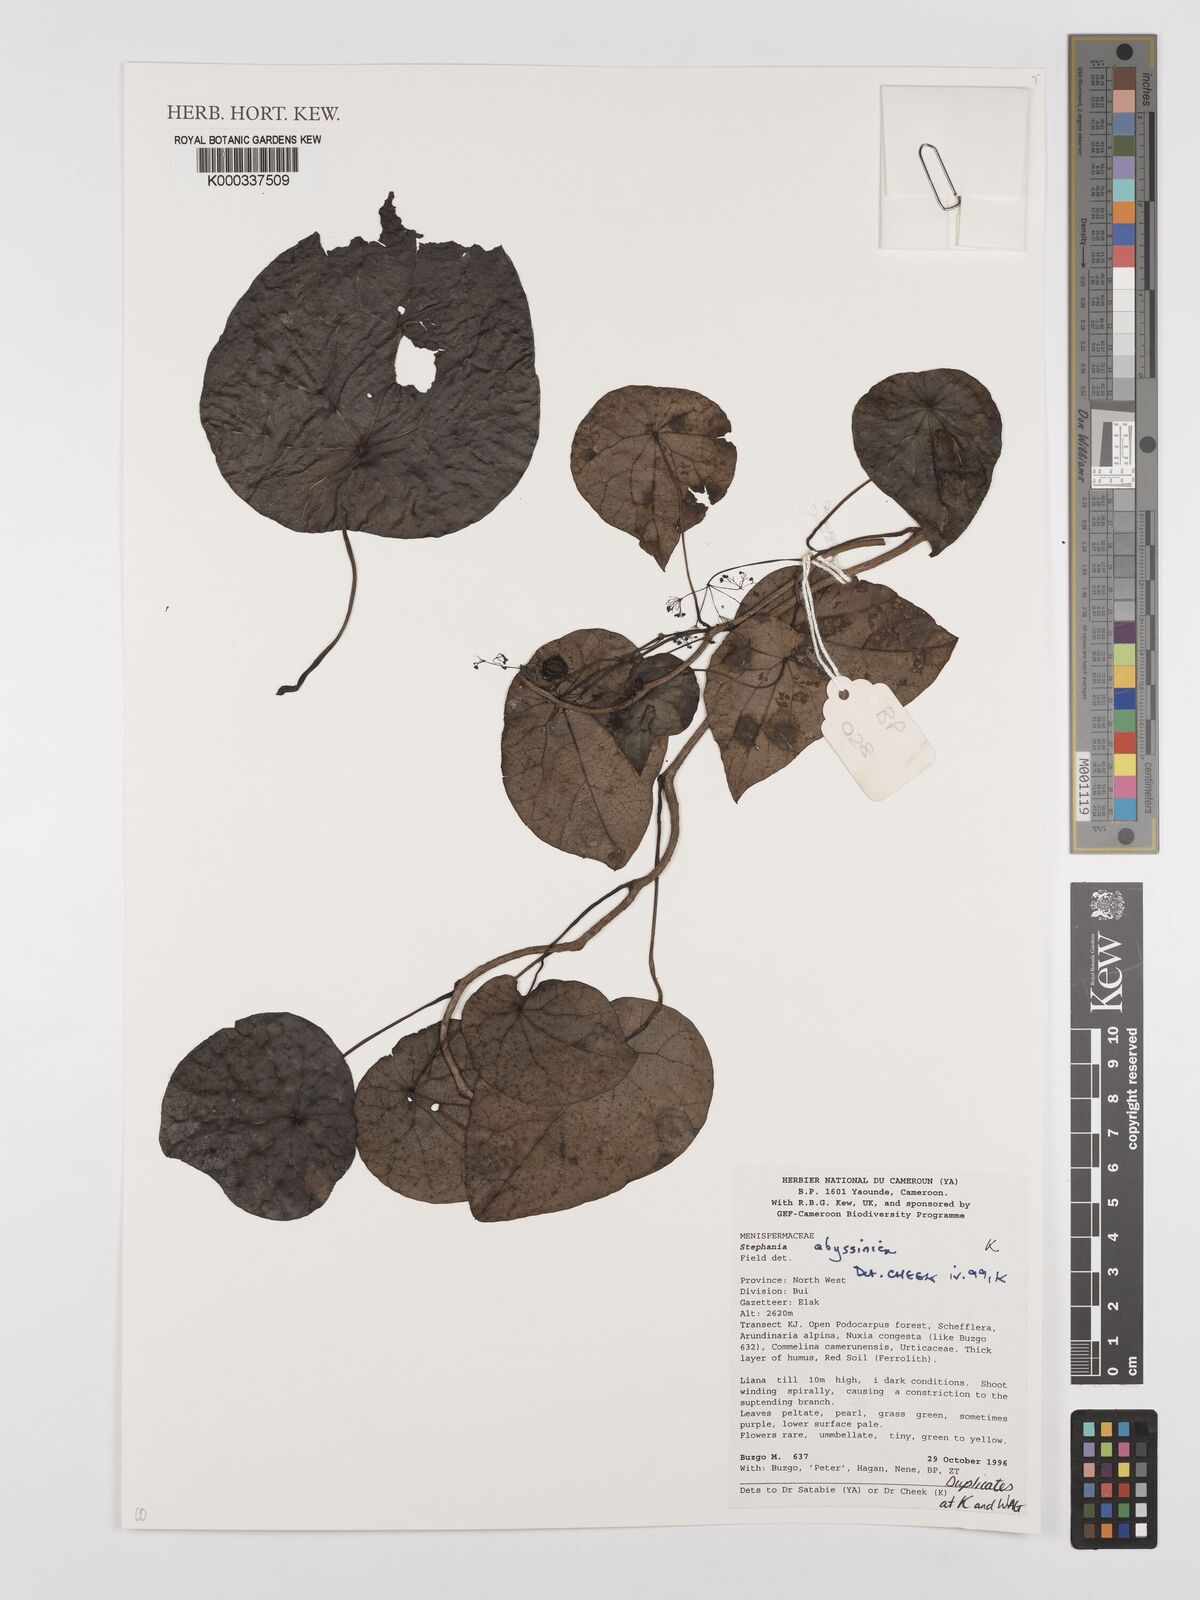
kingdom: Plantae
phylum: Tracheophyta
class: Magnoliopsida
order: Ranunculales
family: Menispermaceae
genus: Stephania
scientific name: Stephania
